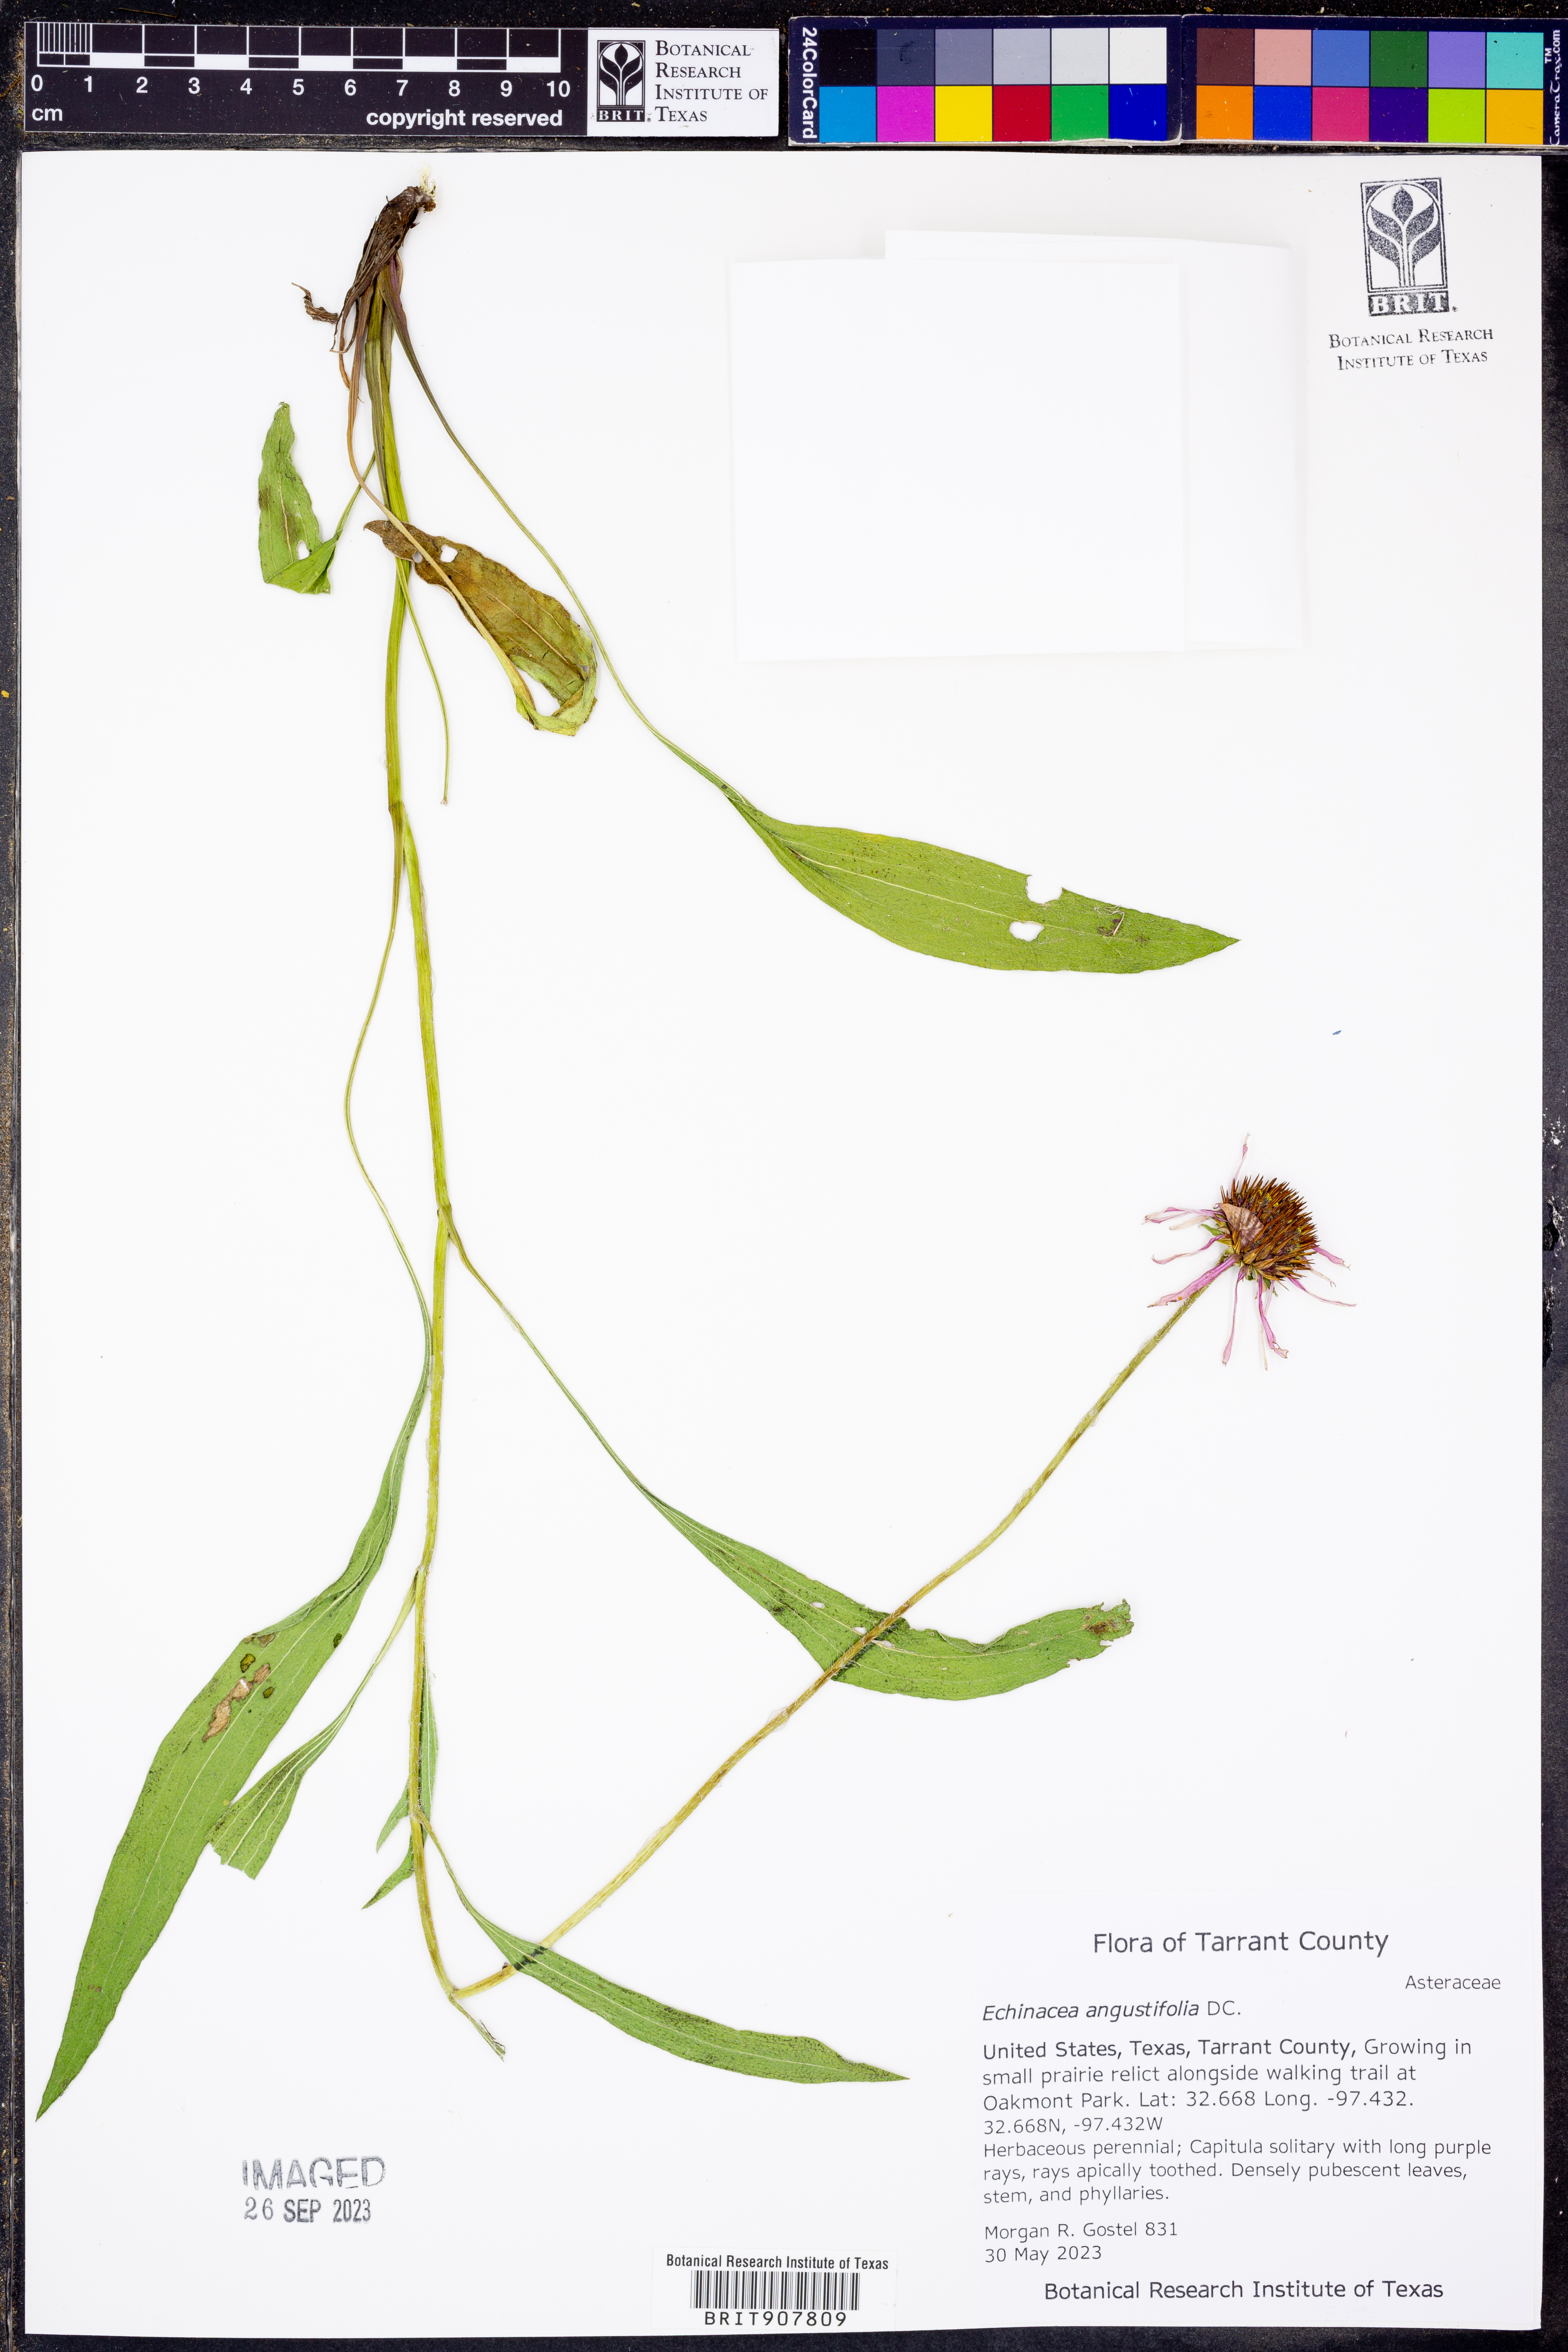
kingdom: Plantae
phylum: Tracheophyta
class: Magnoliopsida
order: Asterales
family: Asteraceae
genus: Echinacea
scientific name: Echinacea angustifolia
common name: Black-sampson echinacea
